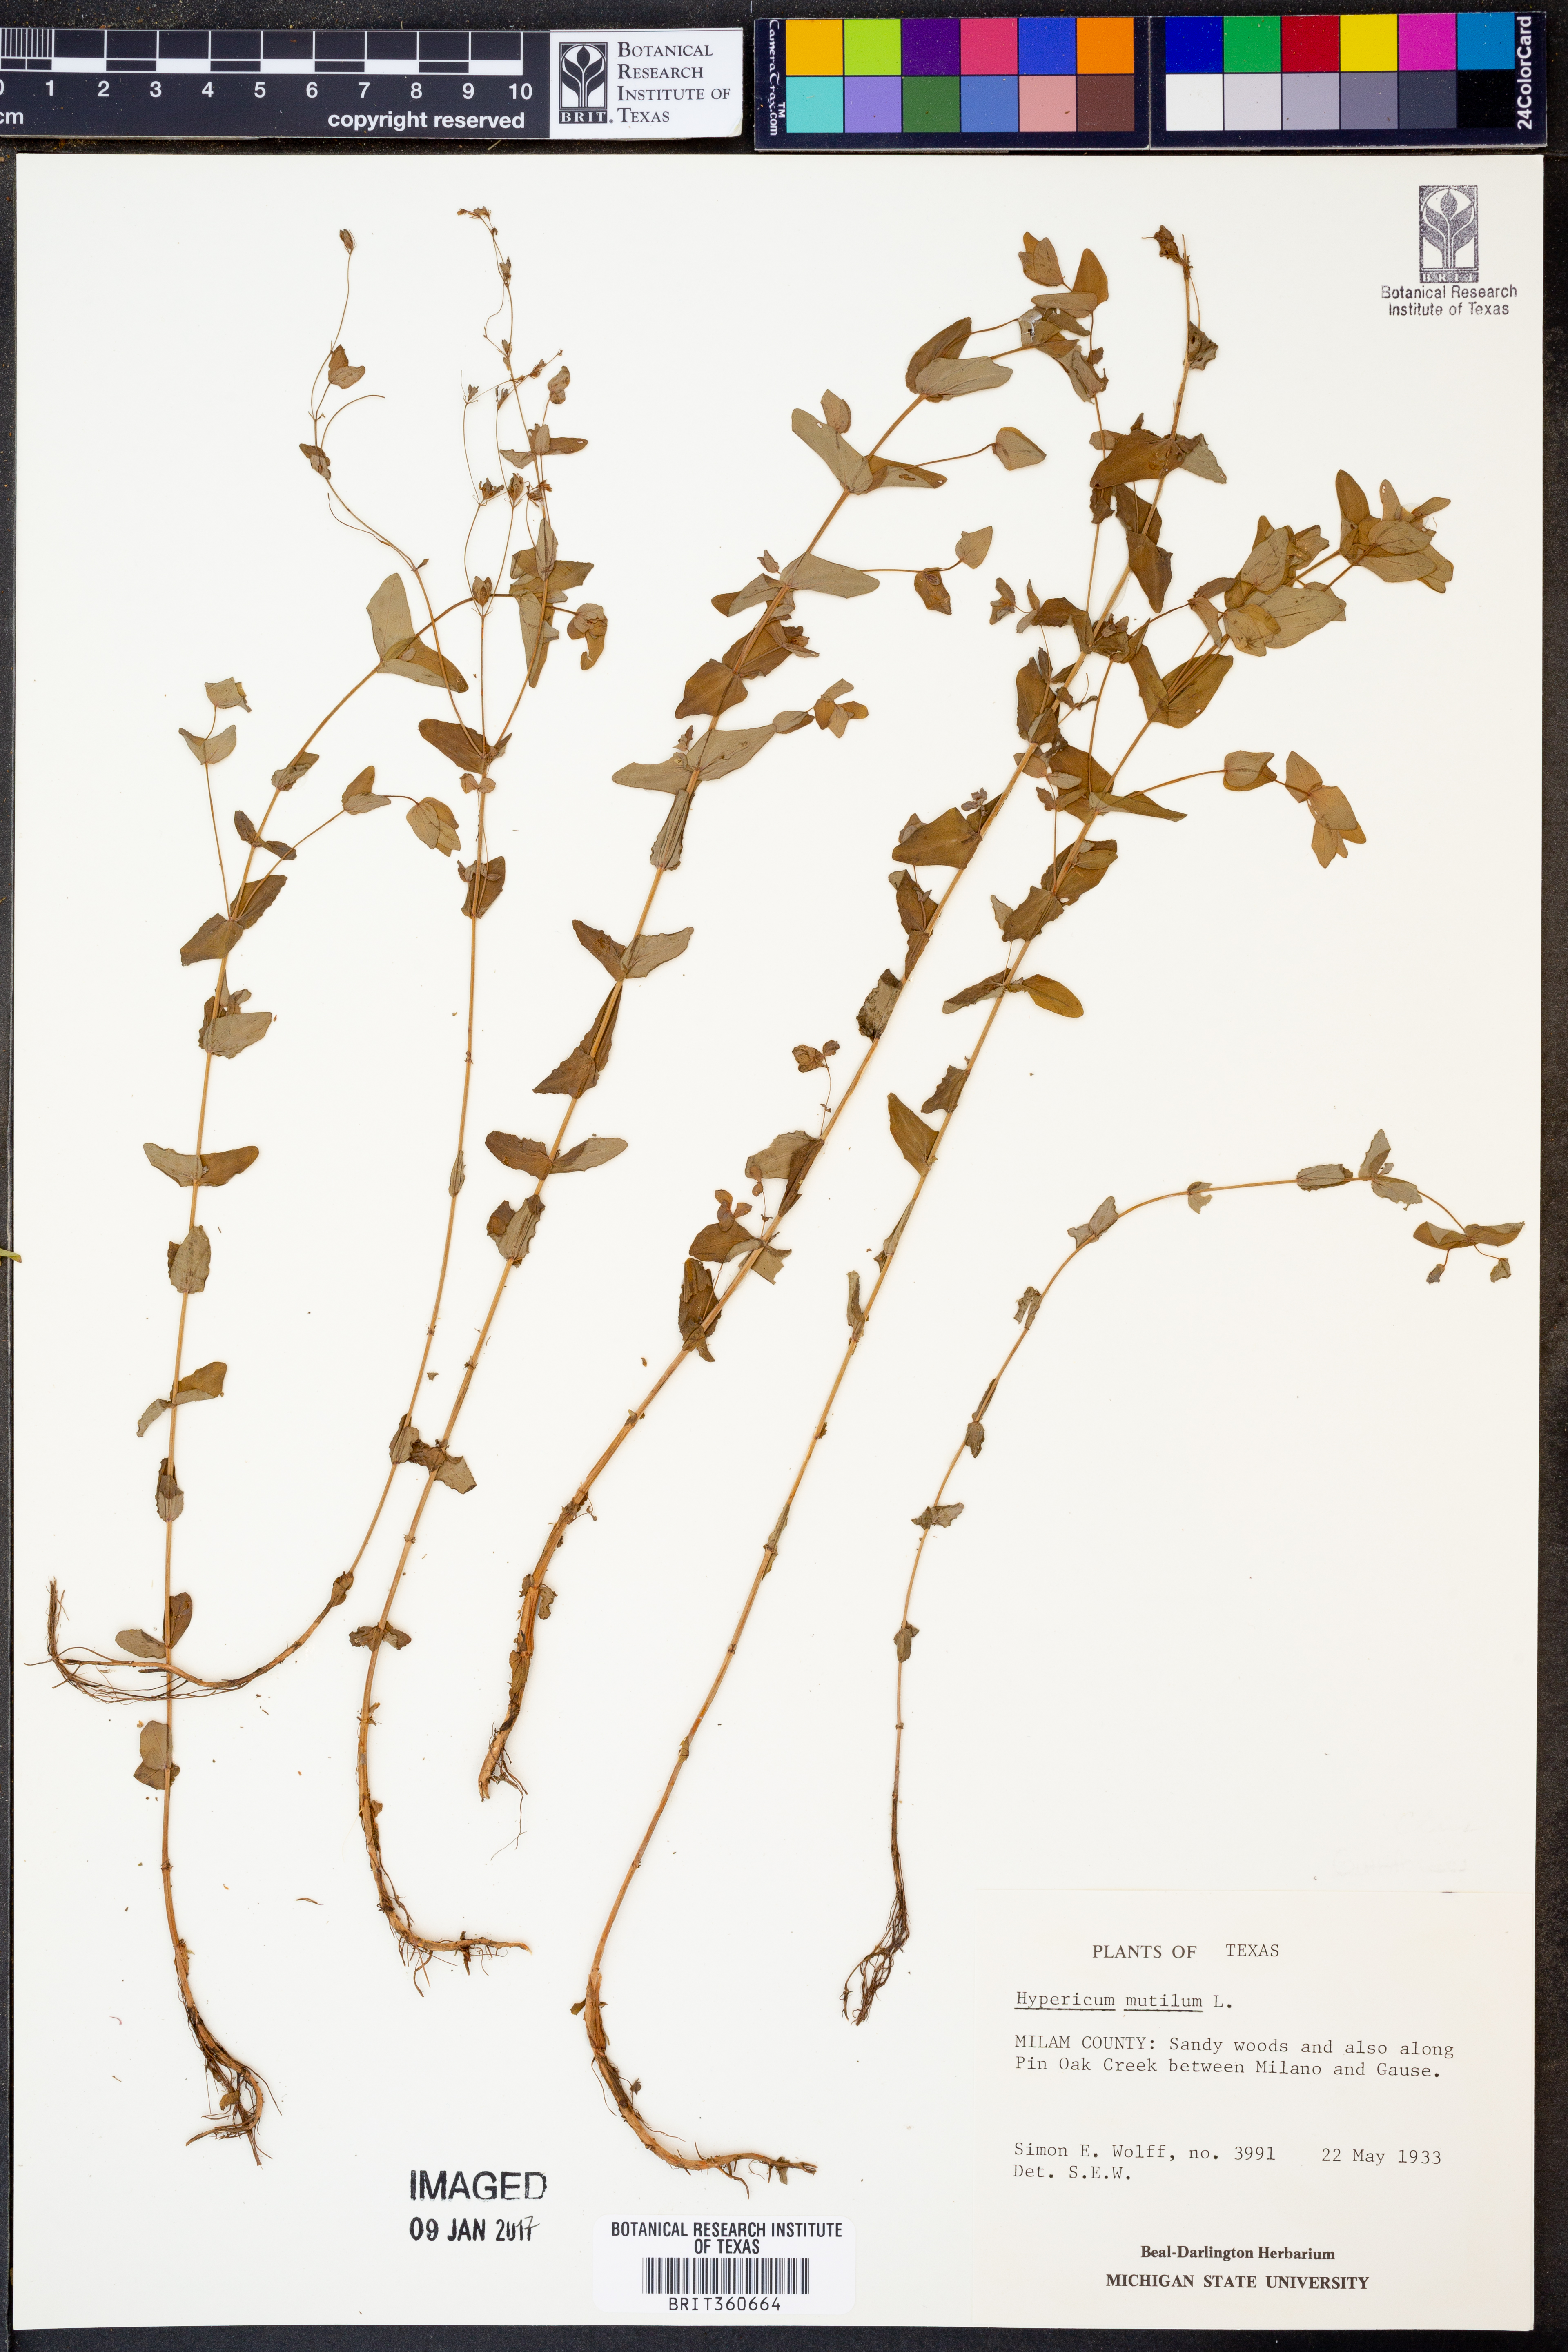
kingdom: Plantae
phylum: Tracheophyta
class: Magnoliopsida
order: Malpighiales
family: Hypericaceae
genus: Hypericum
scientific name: Hypericum mutilum
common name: Dwarf st. john's-wort
